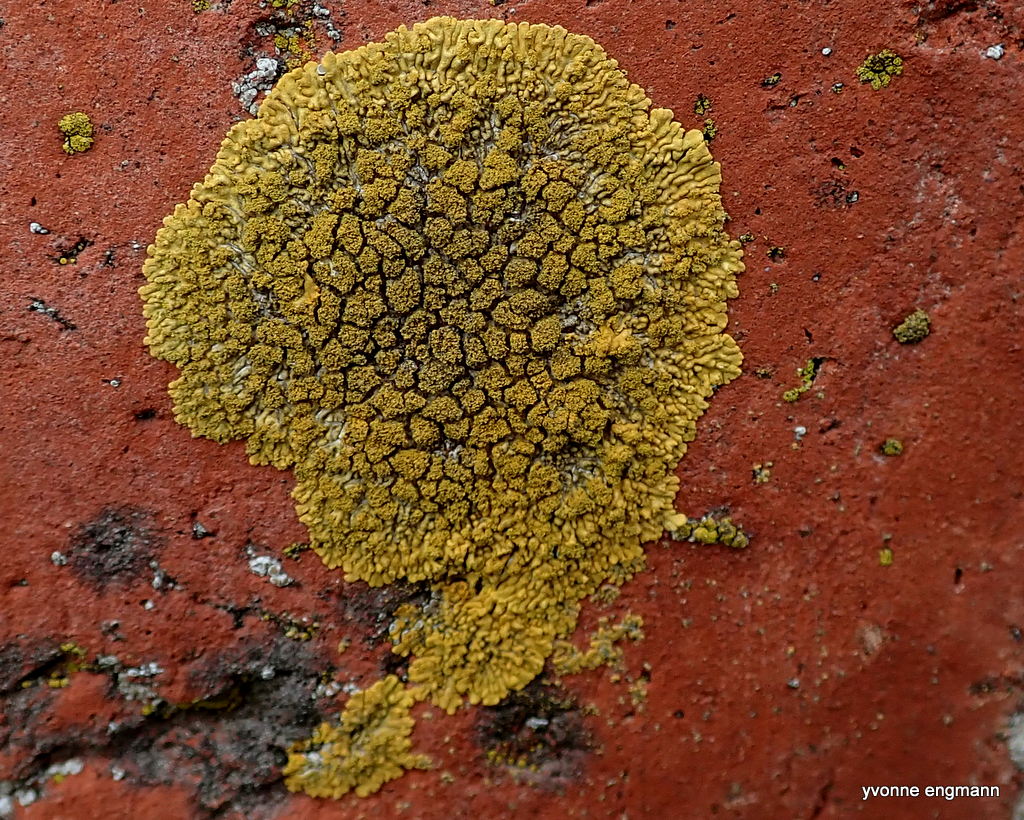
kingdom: Fungi
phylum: Ascomycota
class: Lecanoromycetes
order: Teloschistales
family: Teloschistaceae
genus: Calogaya
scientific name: Calogaya decipiens
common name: knudret orangelav
